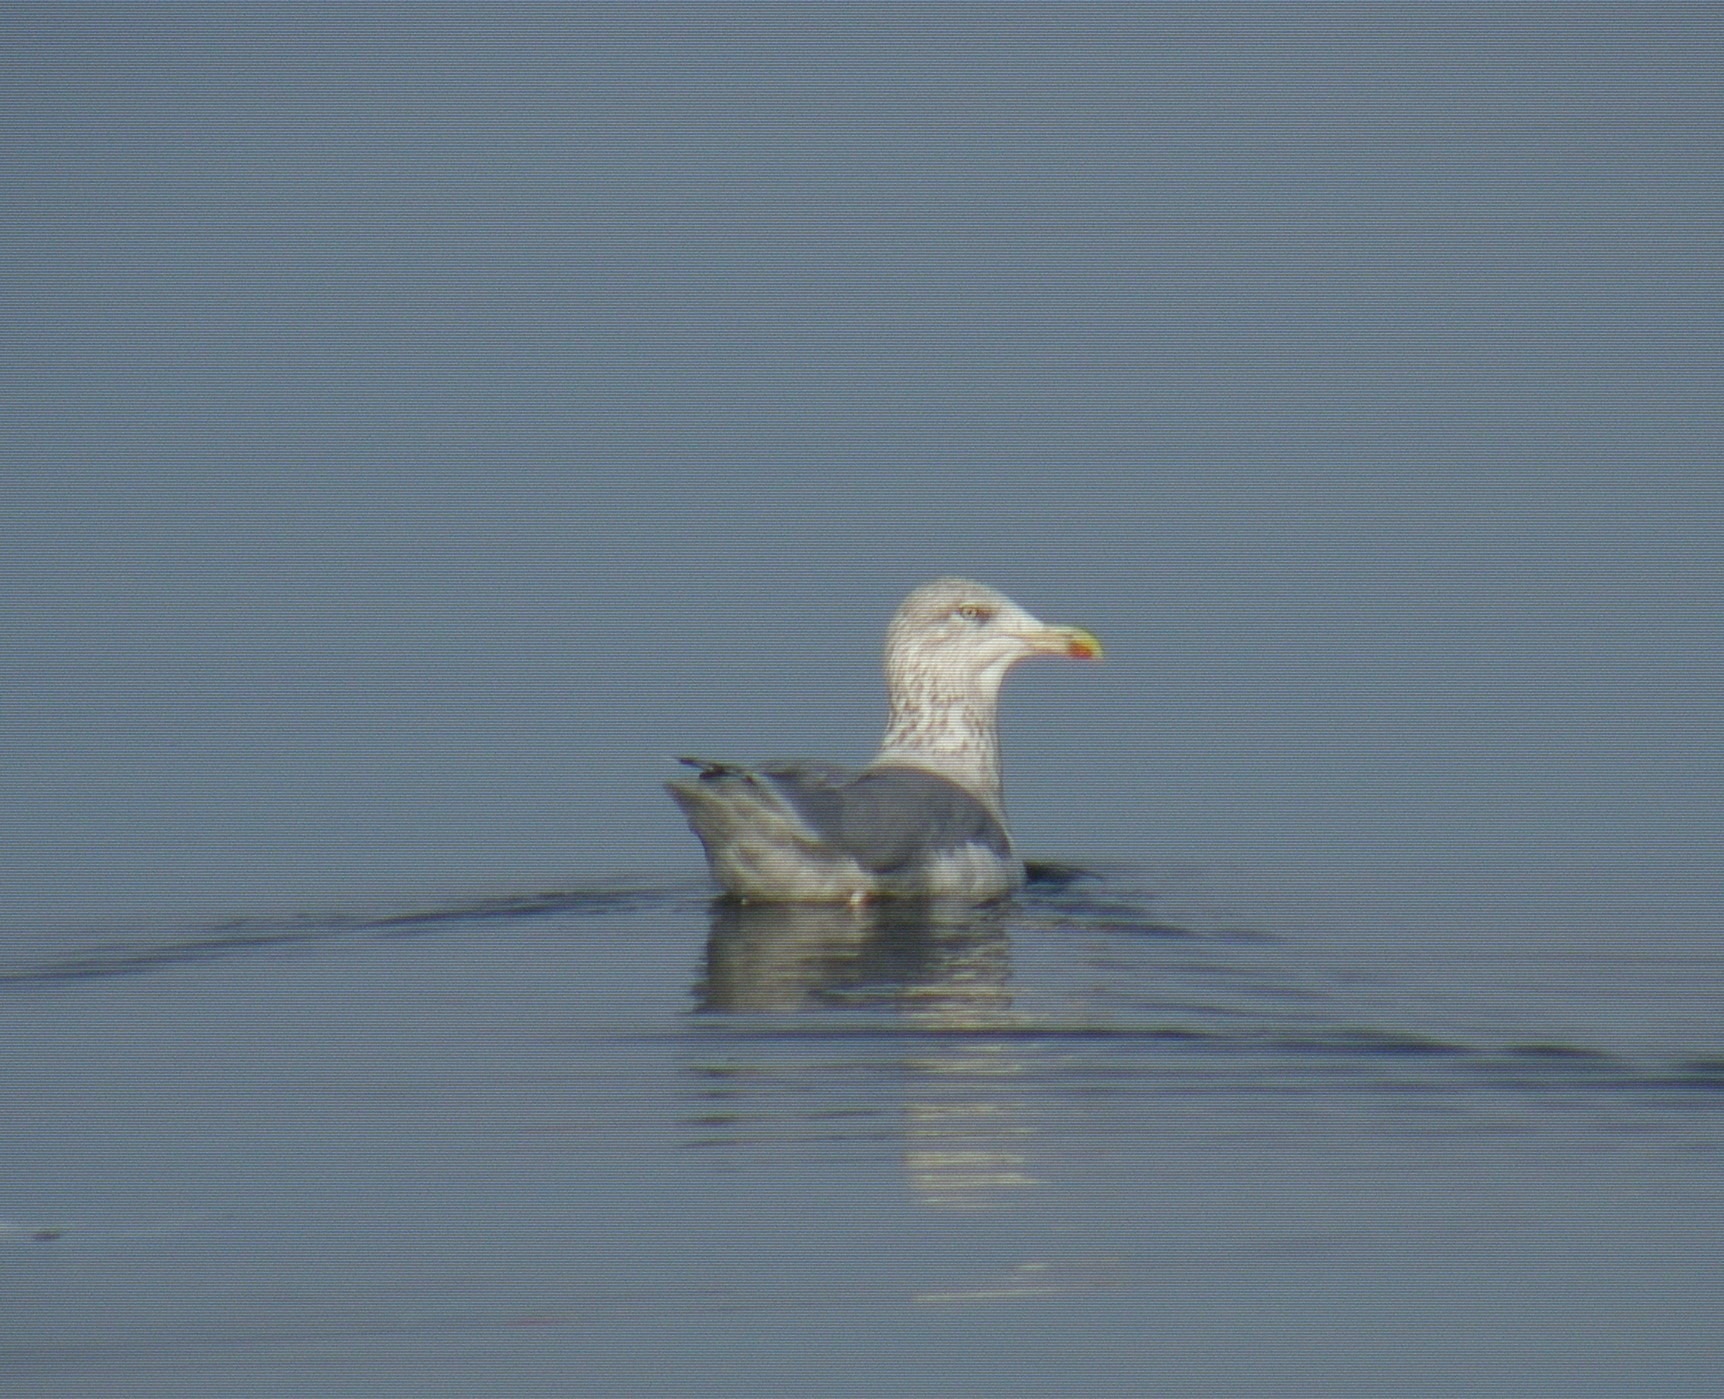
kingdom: Animalia
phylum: Chordata
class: Aves
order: Charadriiformes
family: Laridae
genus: Larus
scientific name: Larus argentatus
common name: Sølvmåge
